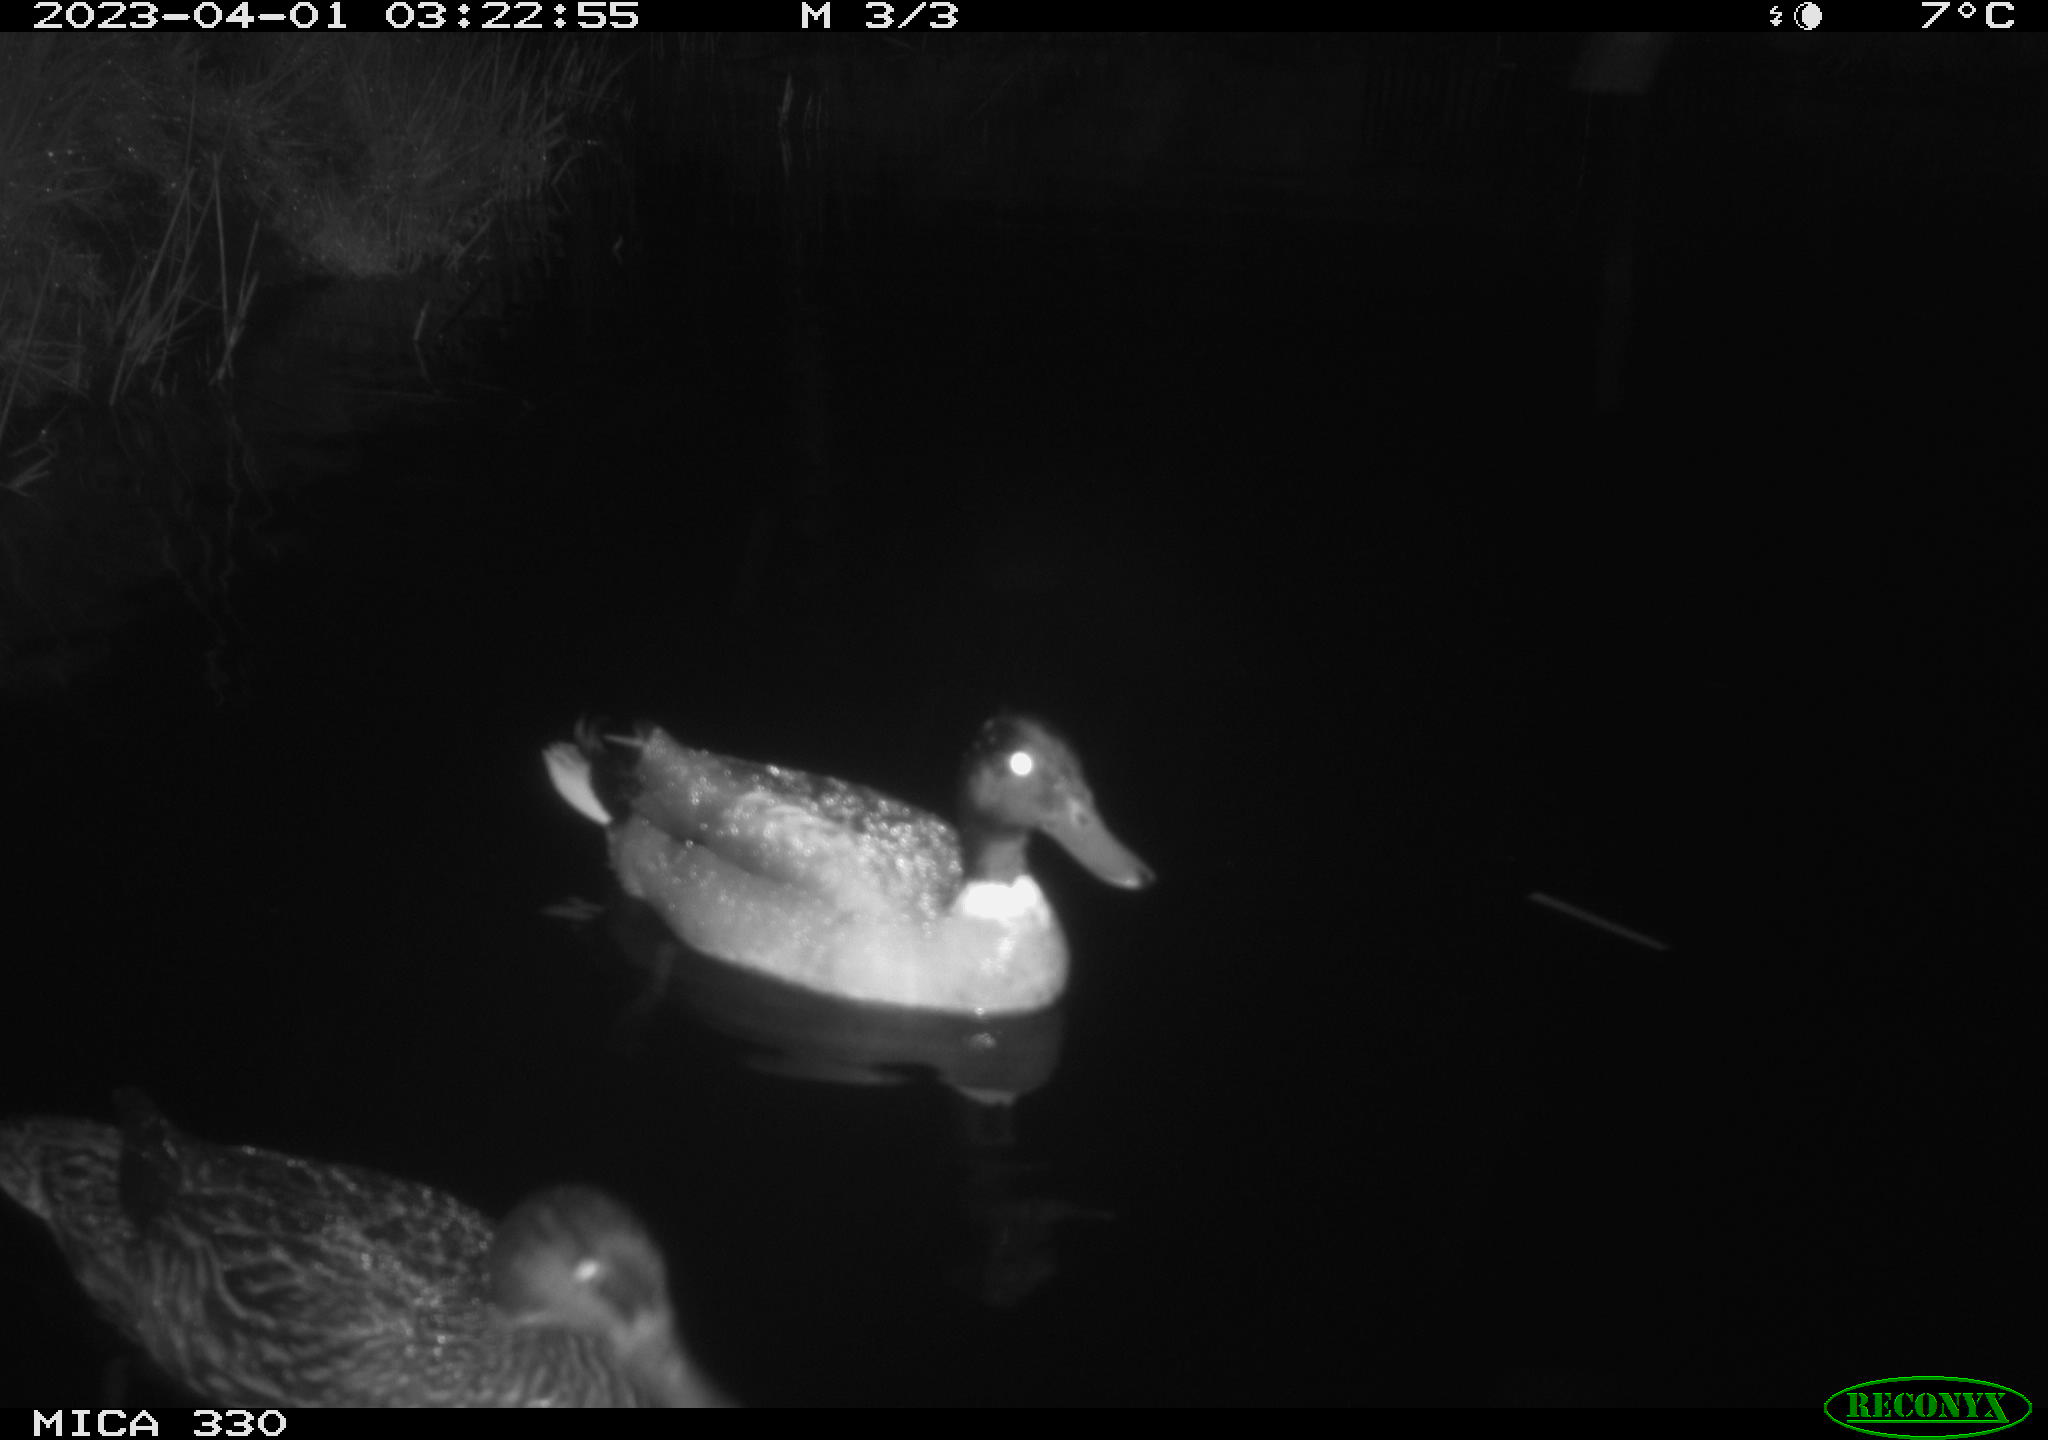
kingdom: Animalia
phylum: Chordata
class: Aves
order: Anseriformes
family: Anatidae
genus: Anas
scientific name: Anas
